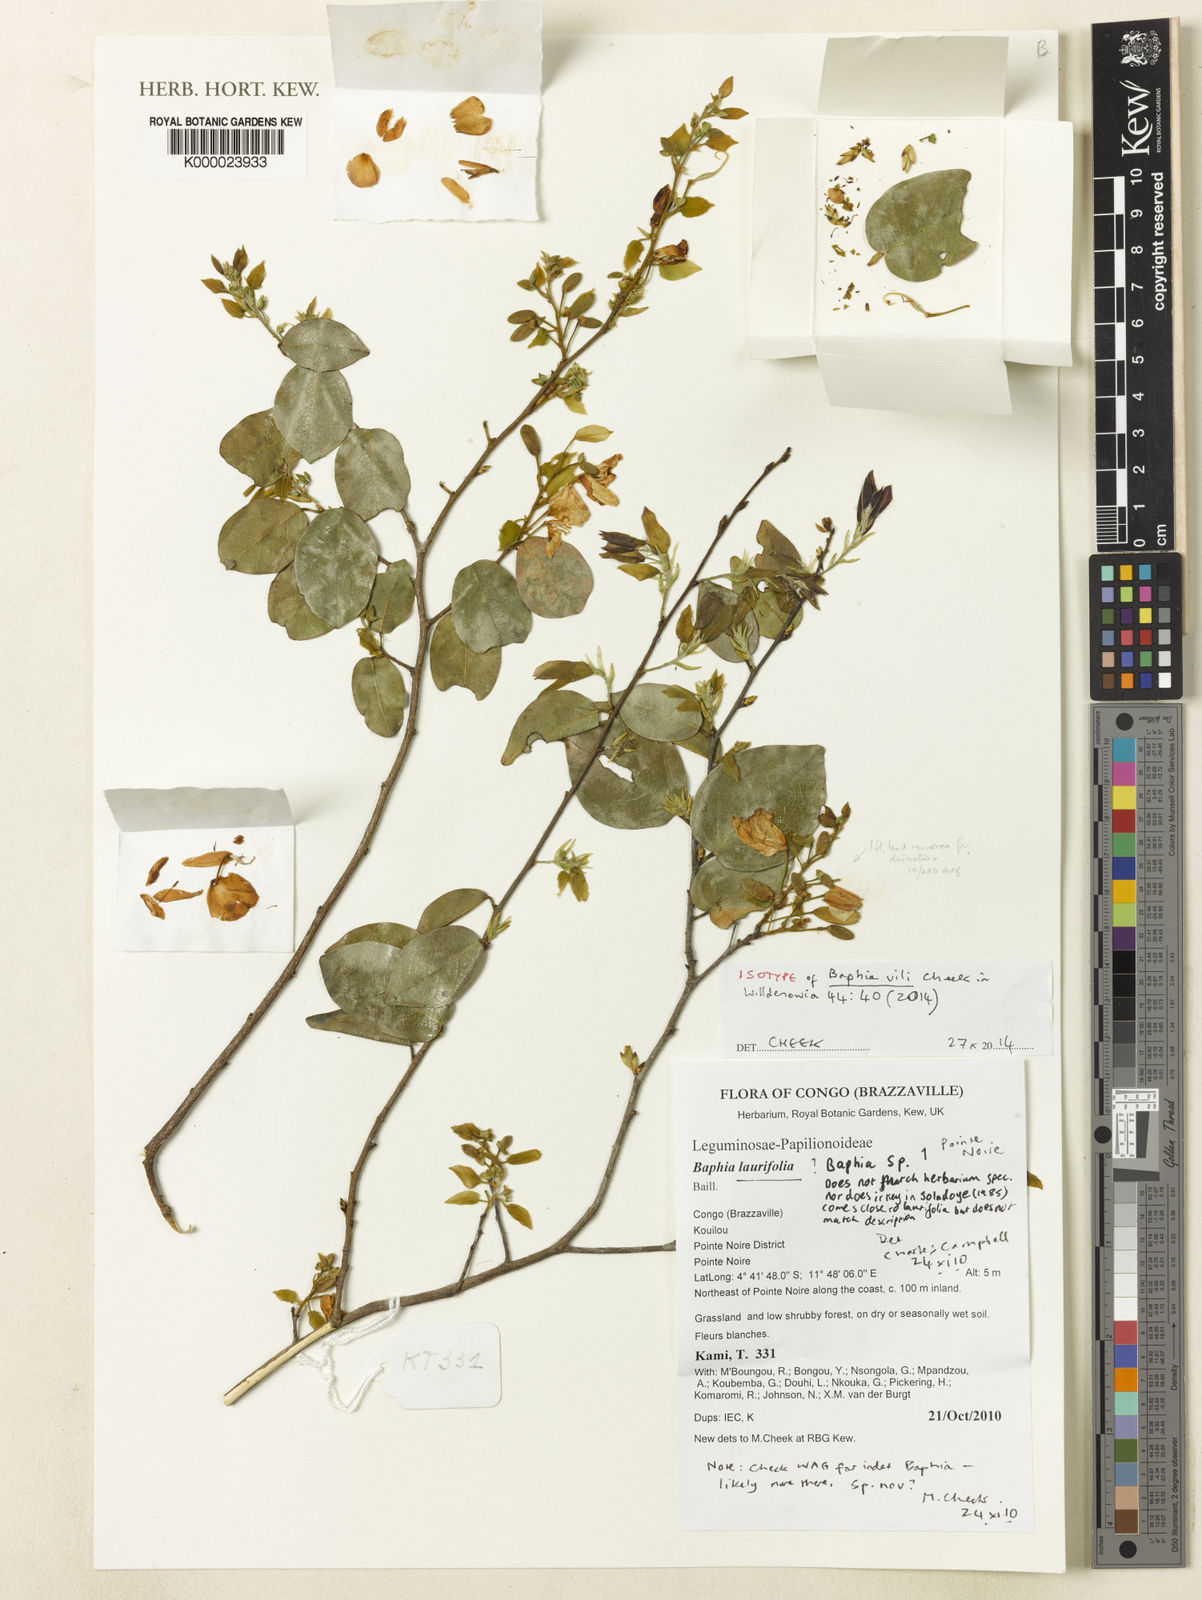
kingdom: Plantae
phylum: Tracheophyta
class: Magnoliopsida
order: Fabales
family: Fabaceae
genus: Baphia
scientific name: Baphia vili
